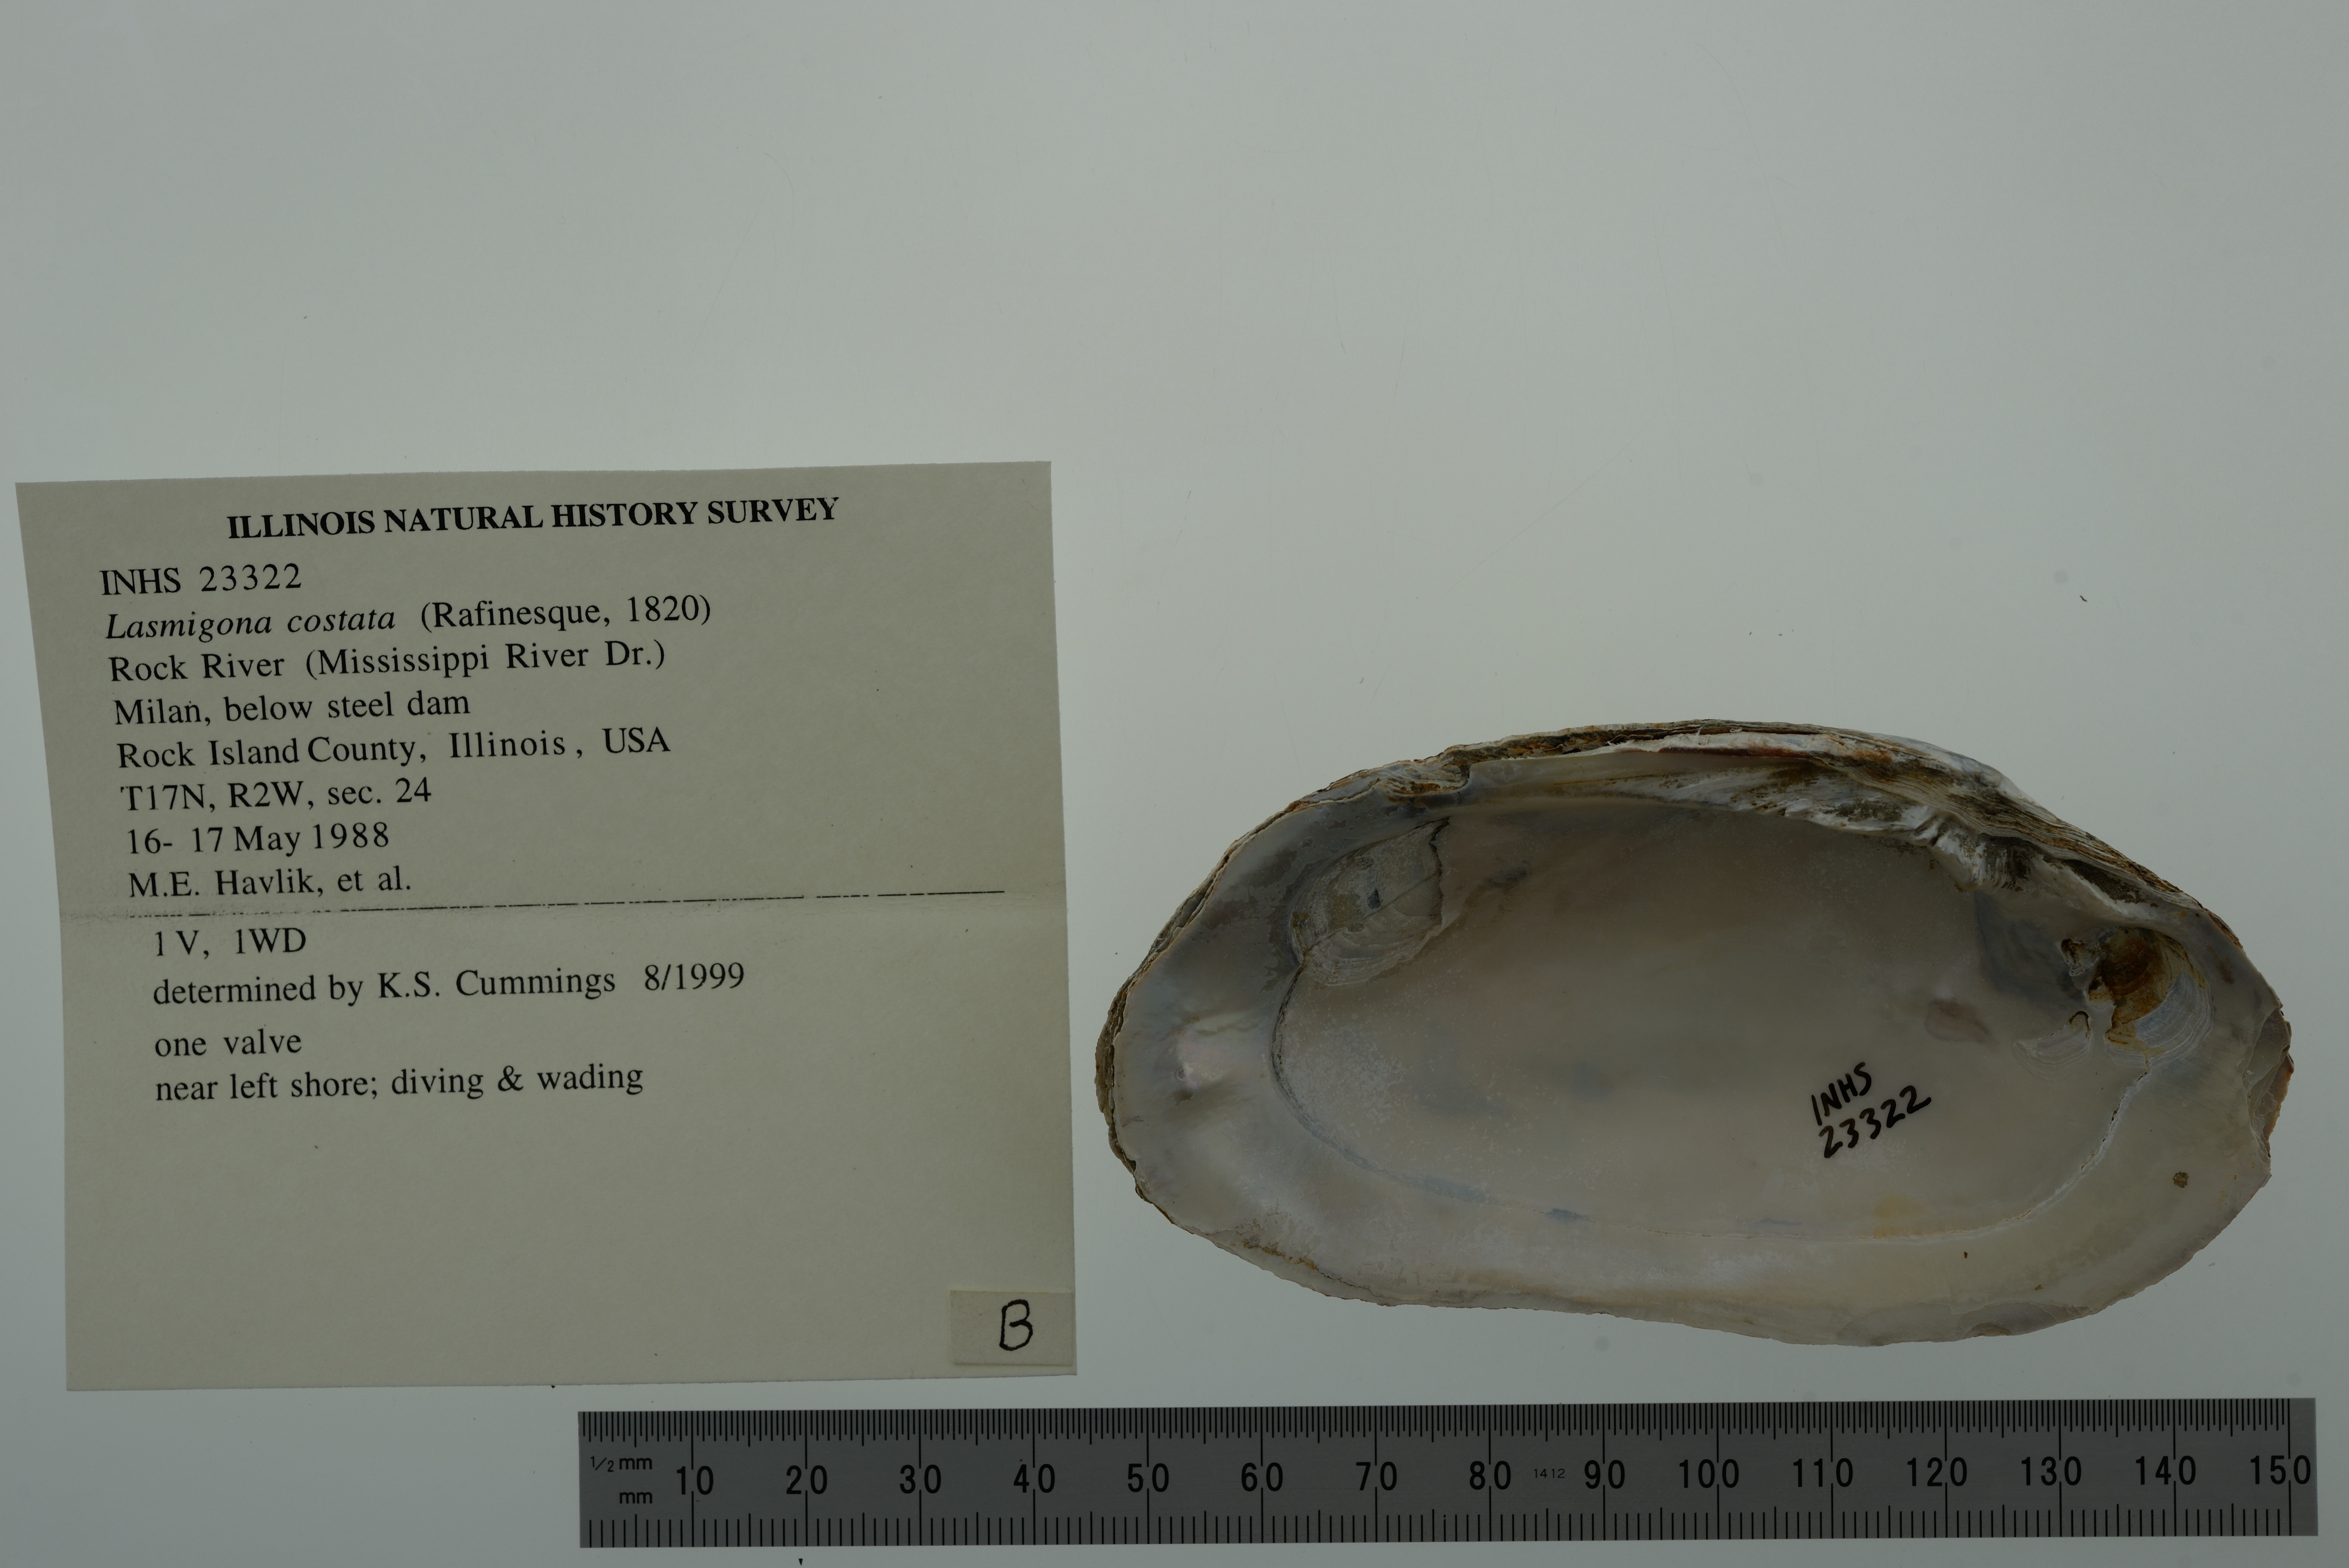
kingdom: Animalia
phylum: Mollusca
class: Bivalvia
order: Unionida
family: Unionidae
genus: Lasmigona
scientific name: Lasmigona costata
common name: Flutedshell
